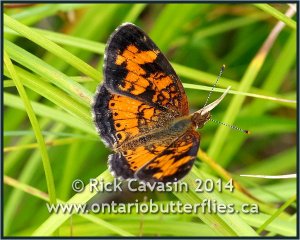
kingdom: Animalia
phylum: Arthropoda
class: Insecta
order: Lepidoptera
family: Nymphalidae
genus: Phyciodes
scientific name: Phyciodes tharos
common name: Northern Crescent
